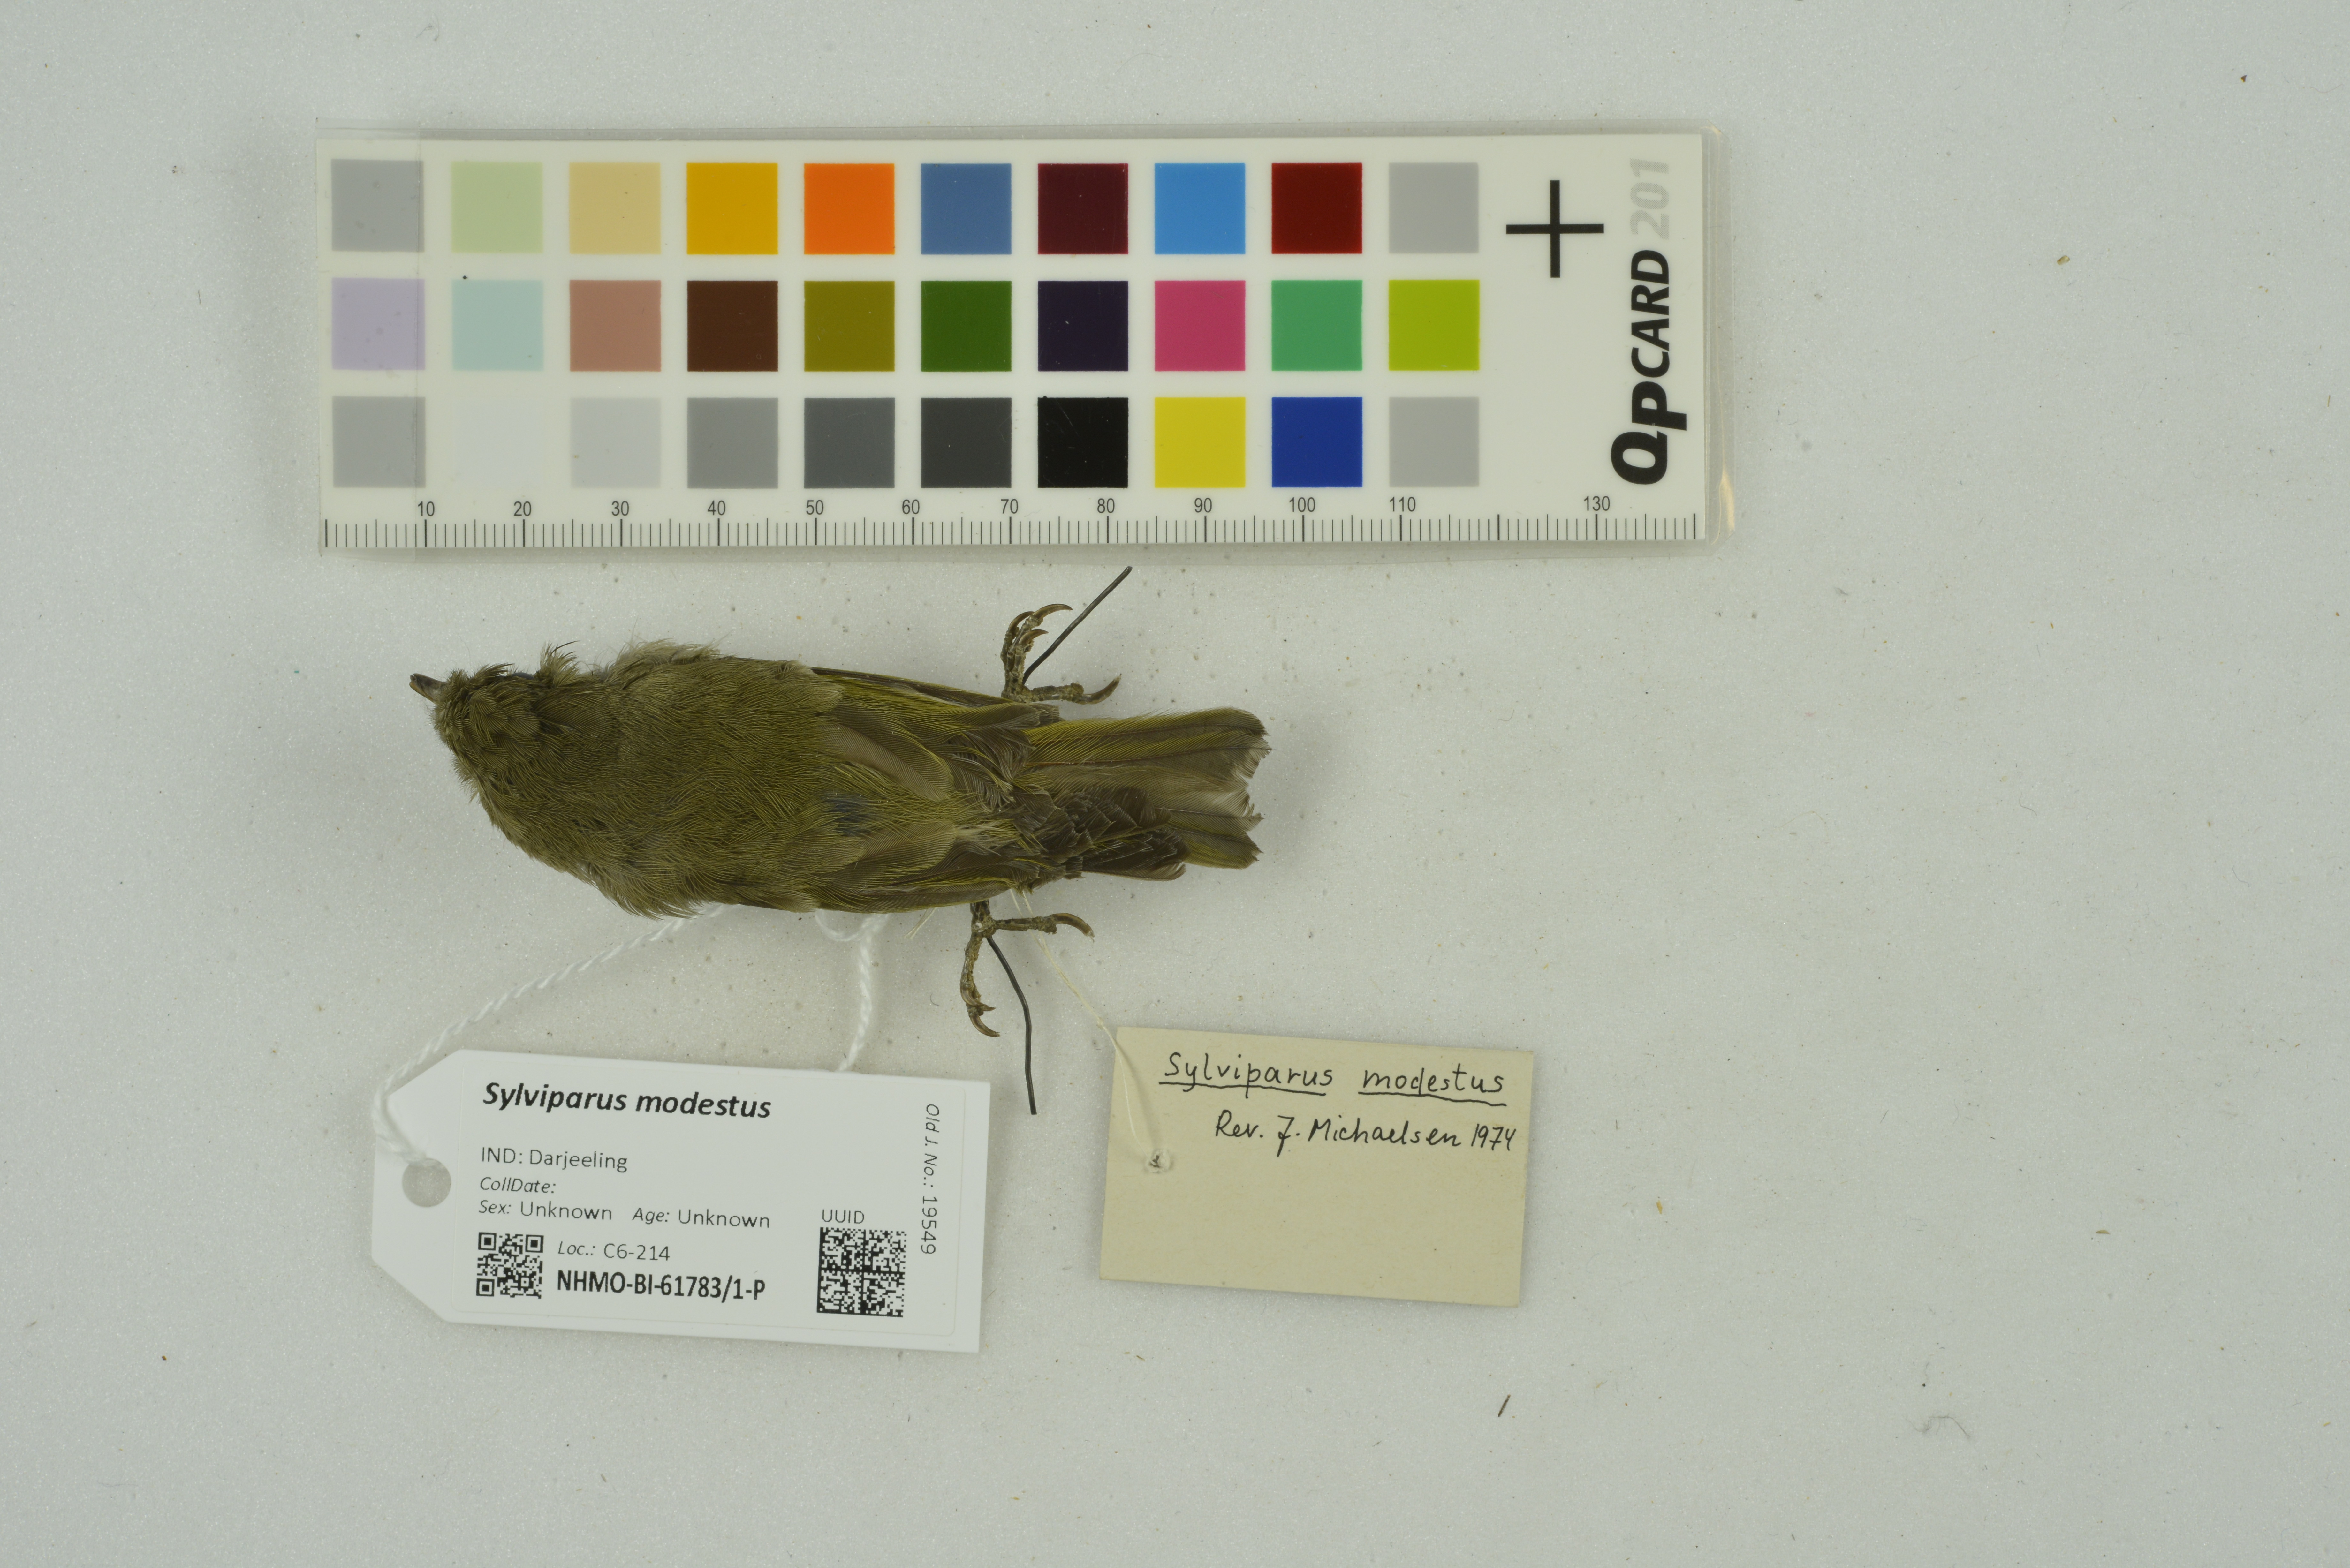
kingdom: Animalia
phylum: Chordata
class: Aves
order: Passeriformes
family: Paridae
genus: Sylviparus
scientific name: Sylviparus modestus
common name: Yellow-browed tit
